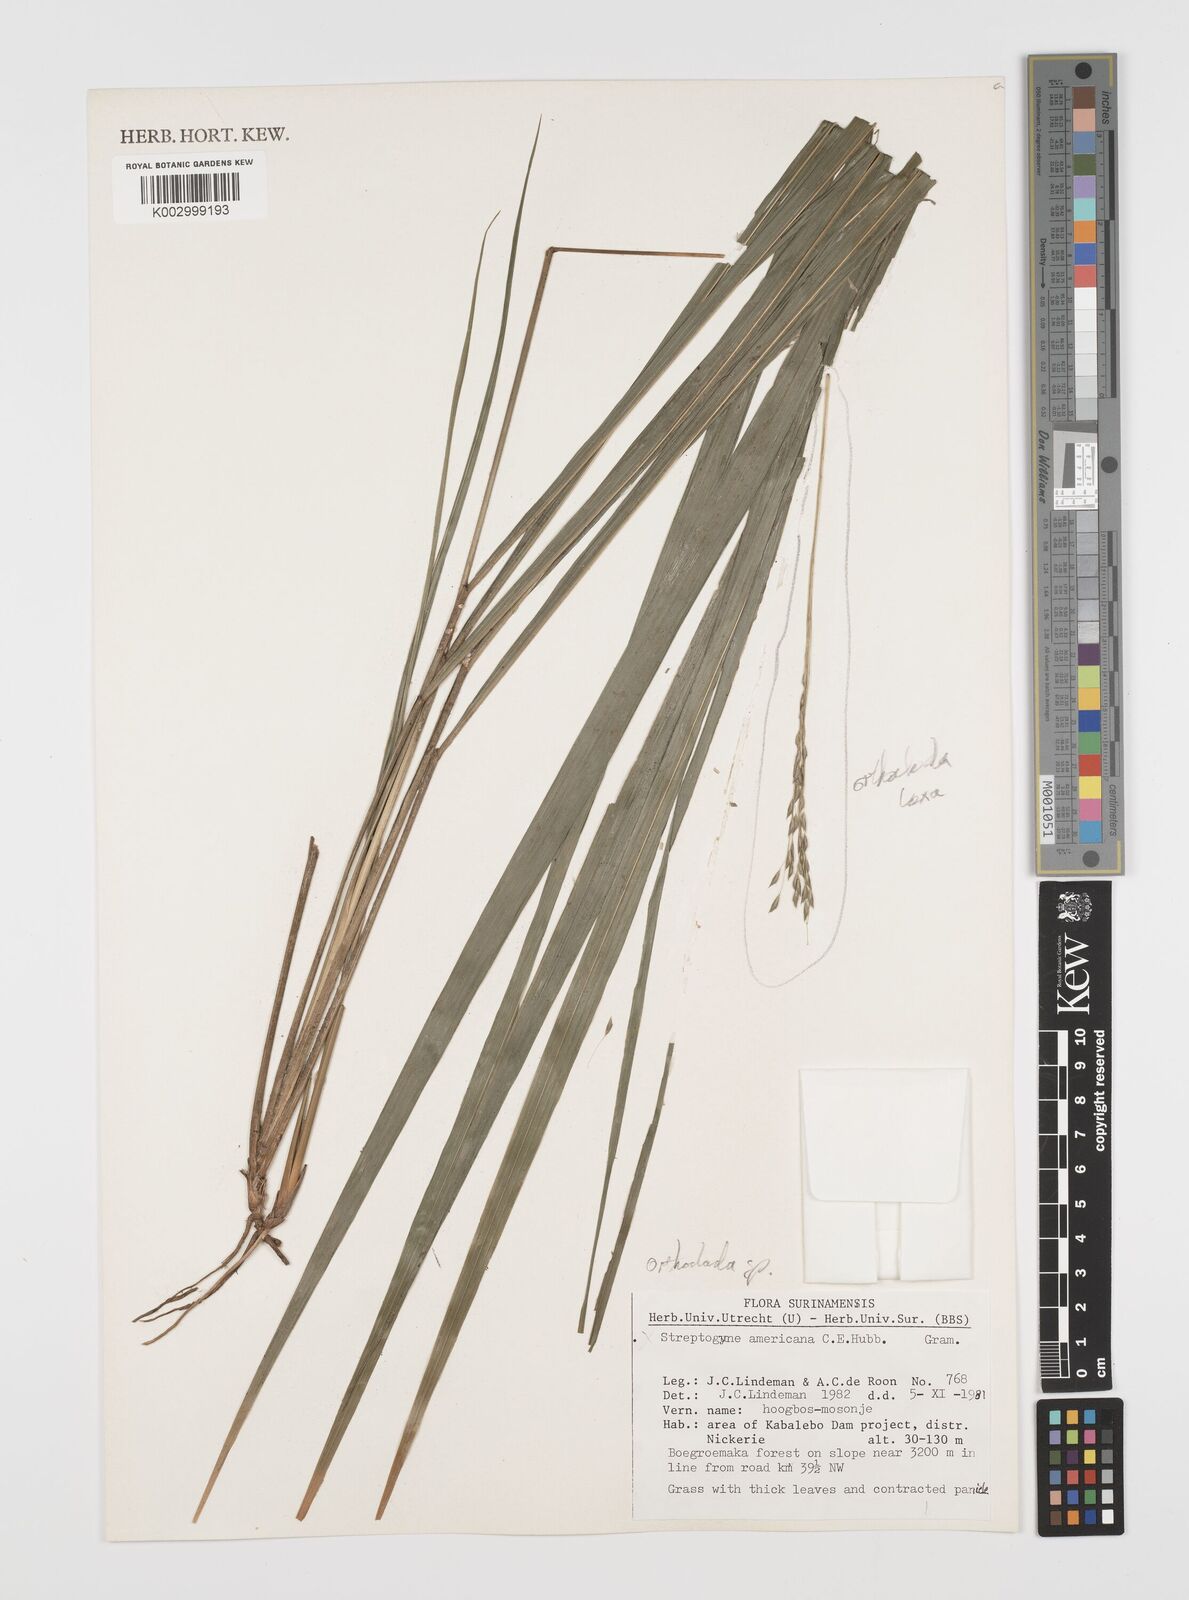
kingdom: Plantae
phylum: Tracheophyta
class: Liliopsida
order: Poales
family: Poaceae
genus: Streptogyna
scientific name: Streptogyna americana
